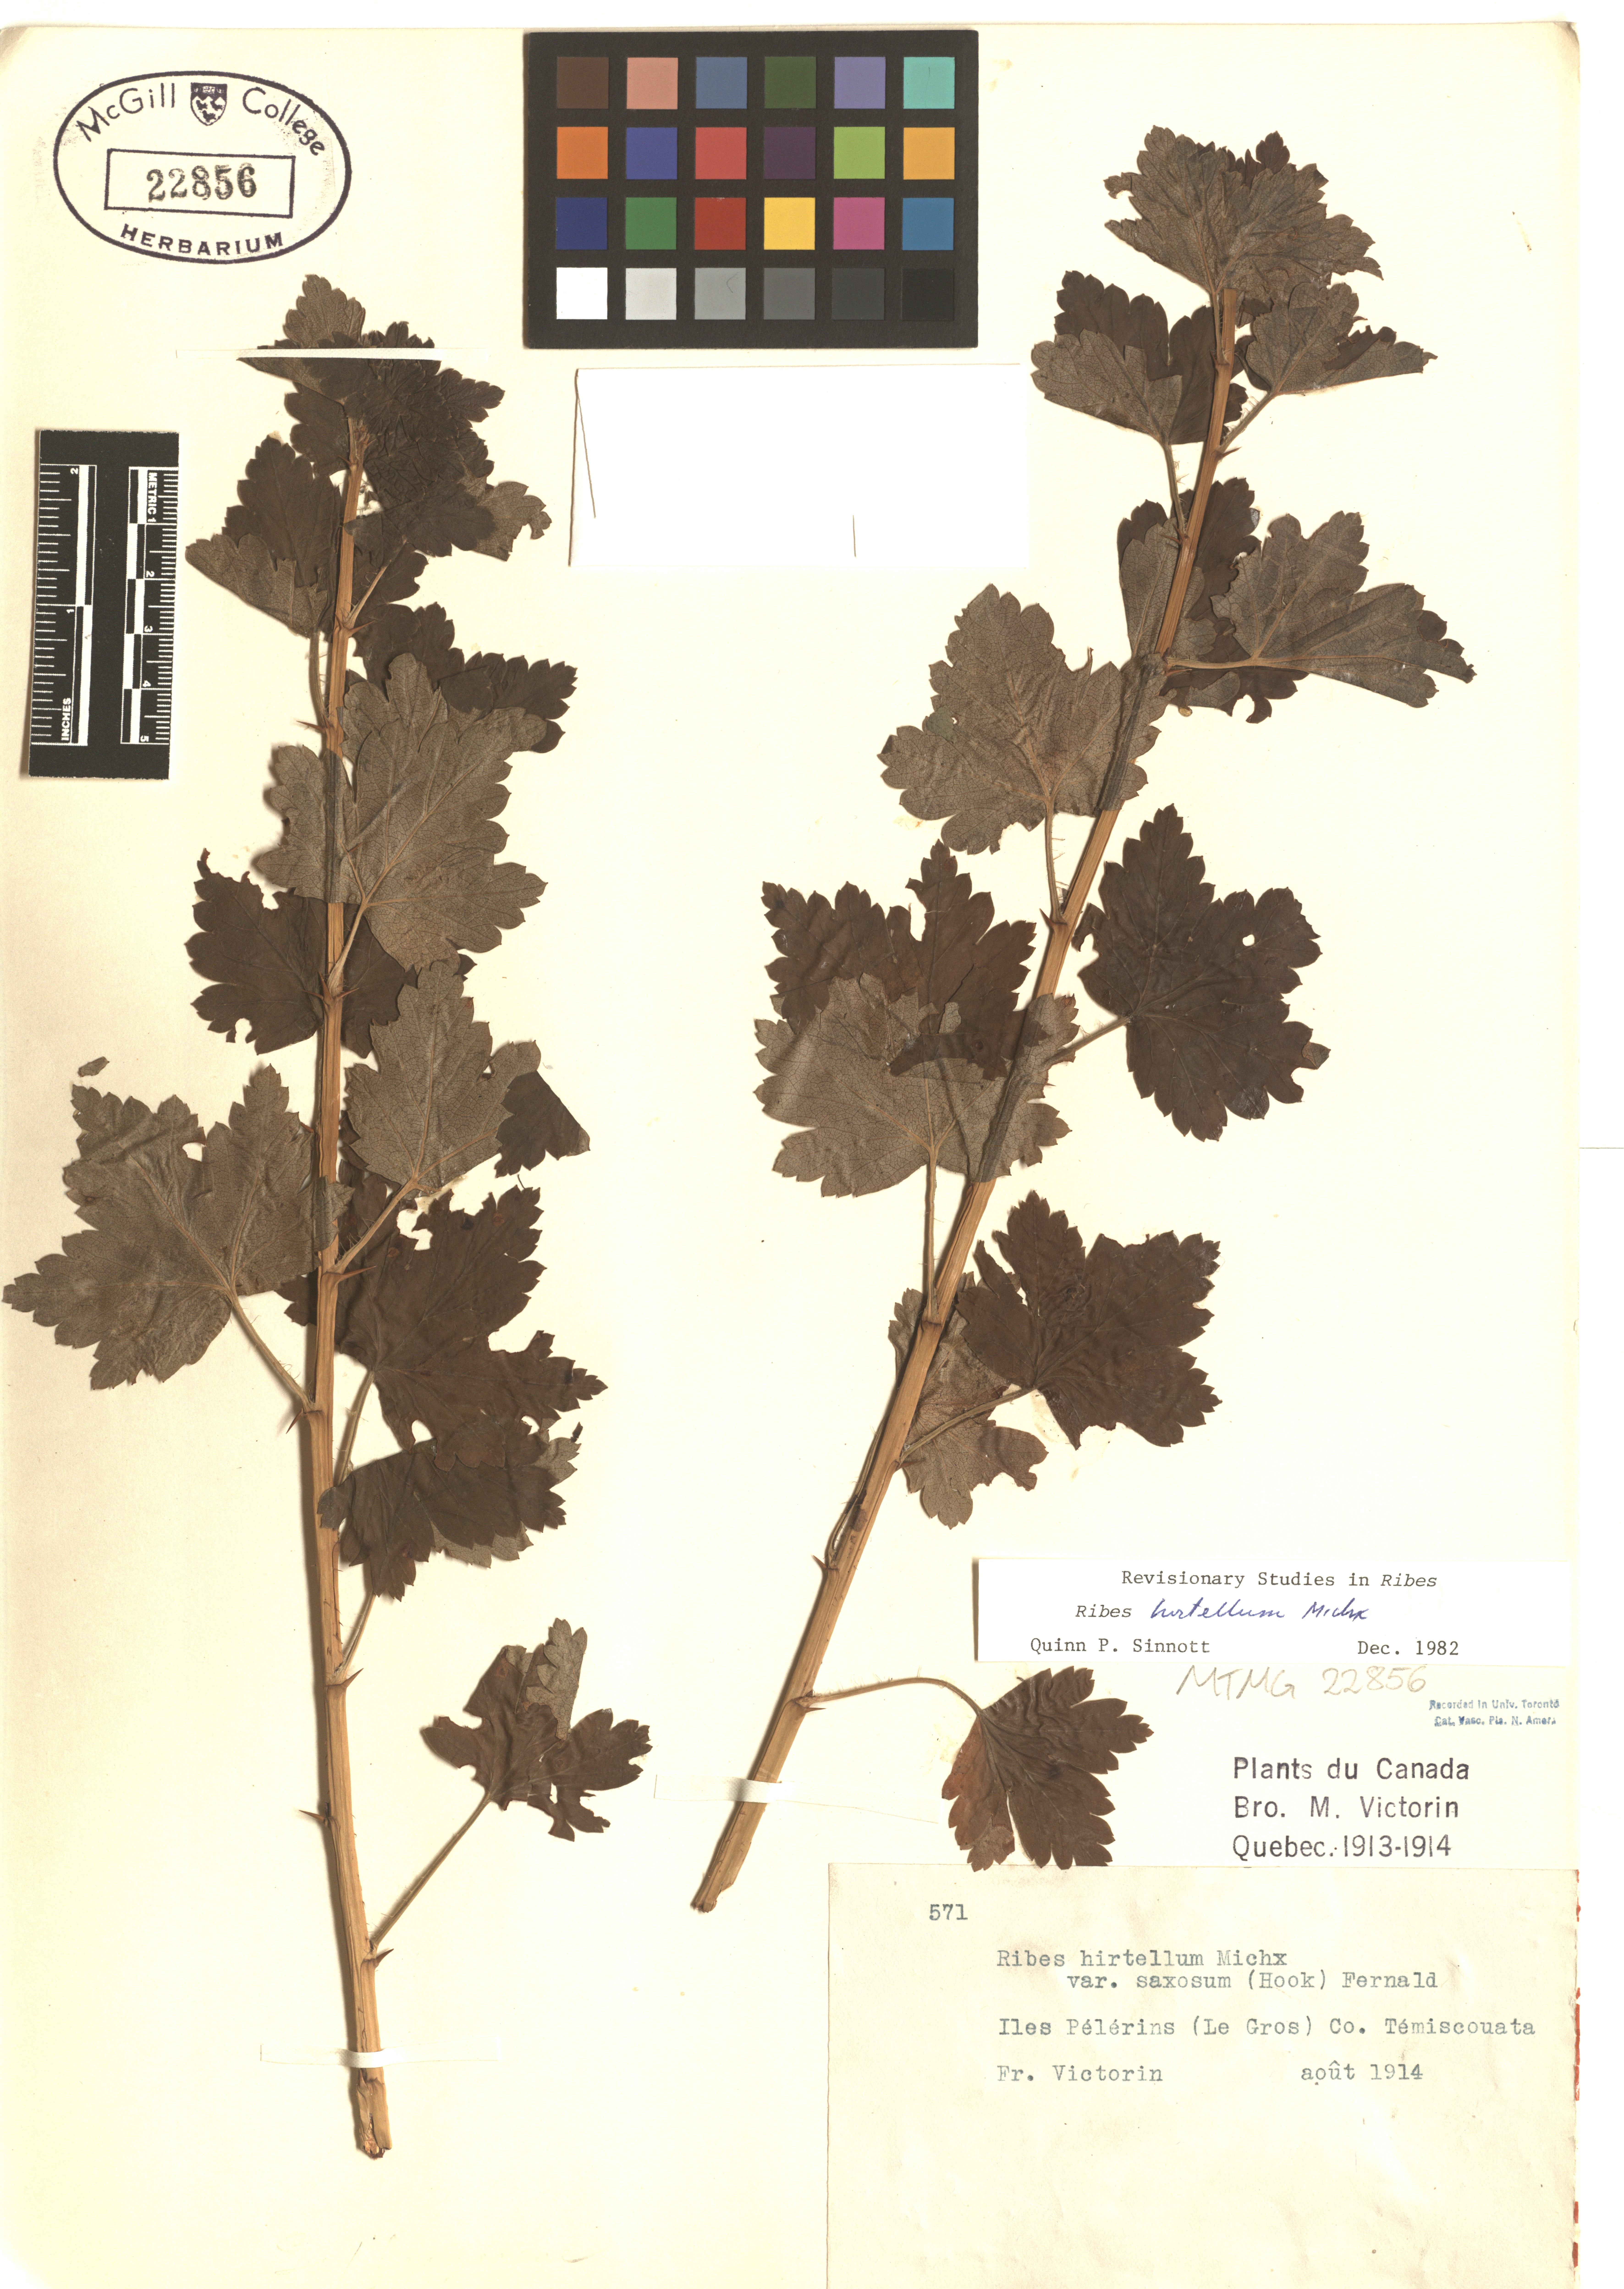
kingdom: Plantae
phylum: Tracheophyta
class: Magnoliopsida
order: Saxifragales
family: Grossulariaceae
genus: Ribes
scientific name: Ribes hirtellum
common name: Hairy gooseberry
